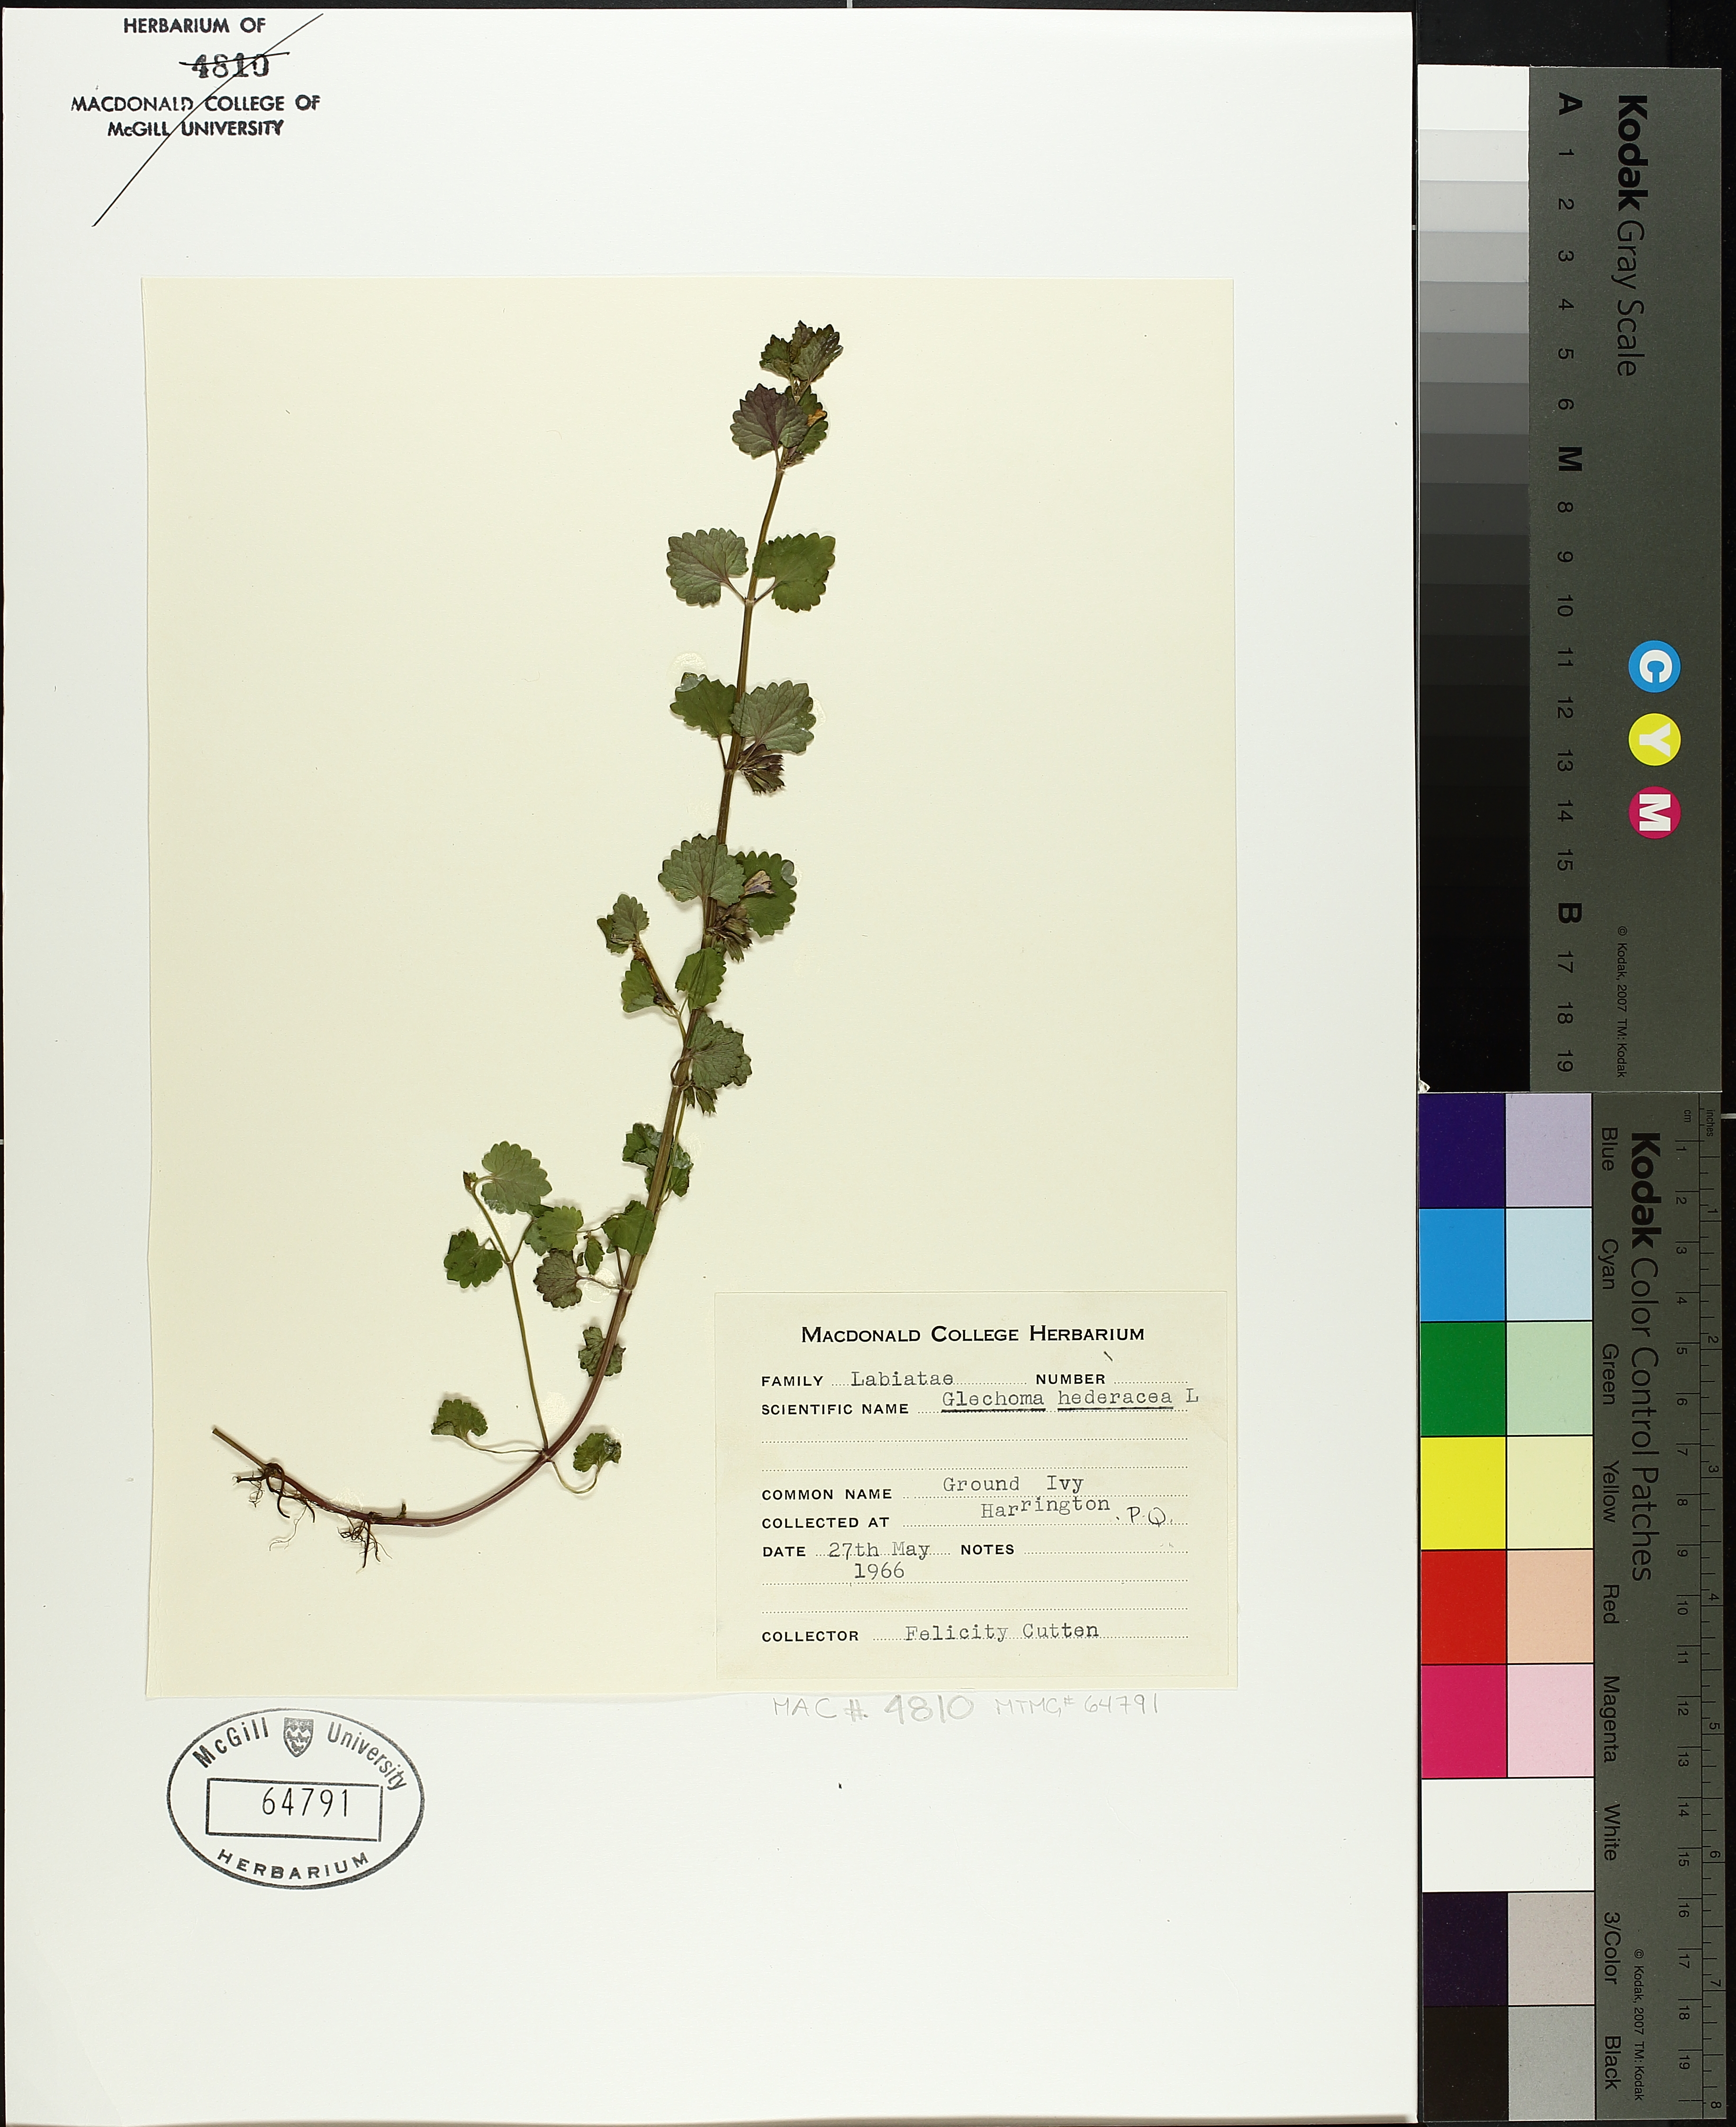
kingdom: Plantae
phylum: Tracheophyta
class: Magnoliopsida
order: Lamiales
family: Lamiaceae
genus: Glechoma
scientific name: Glechoma hederacea
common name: Ground ivy
